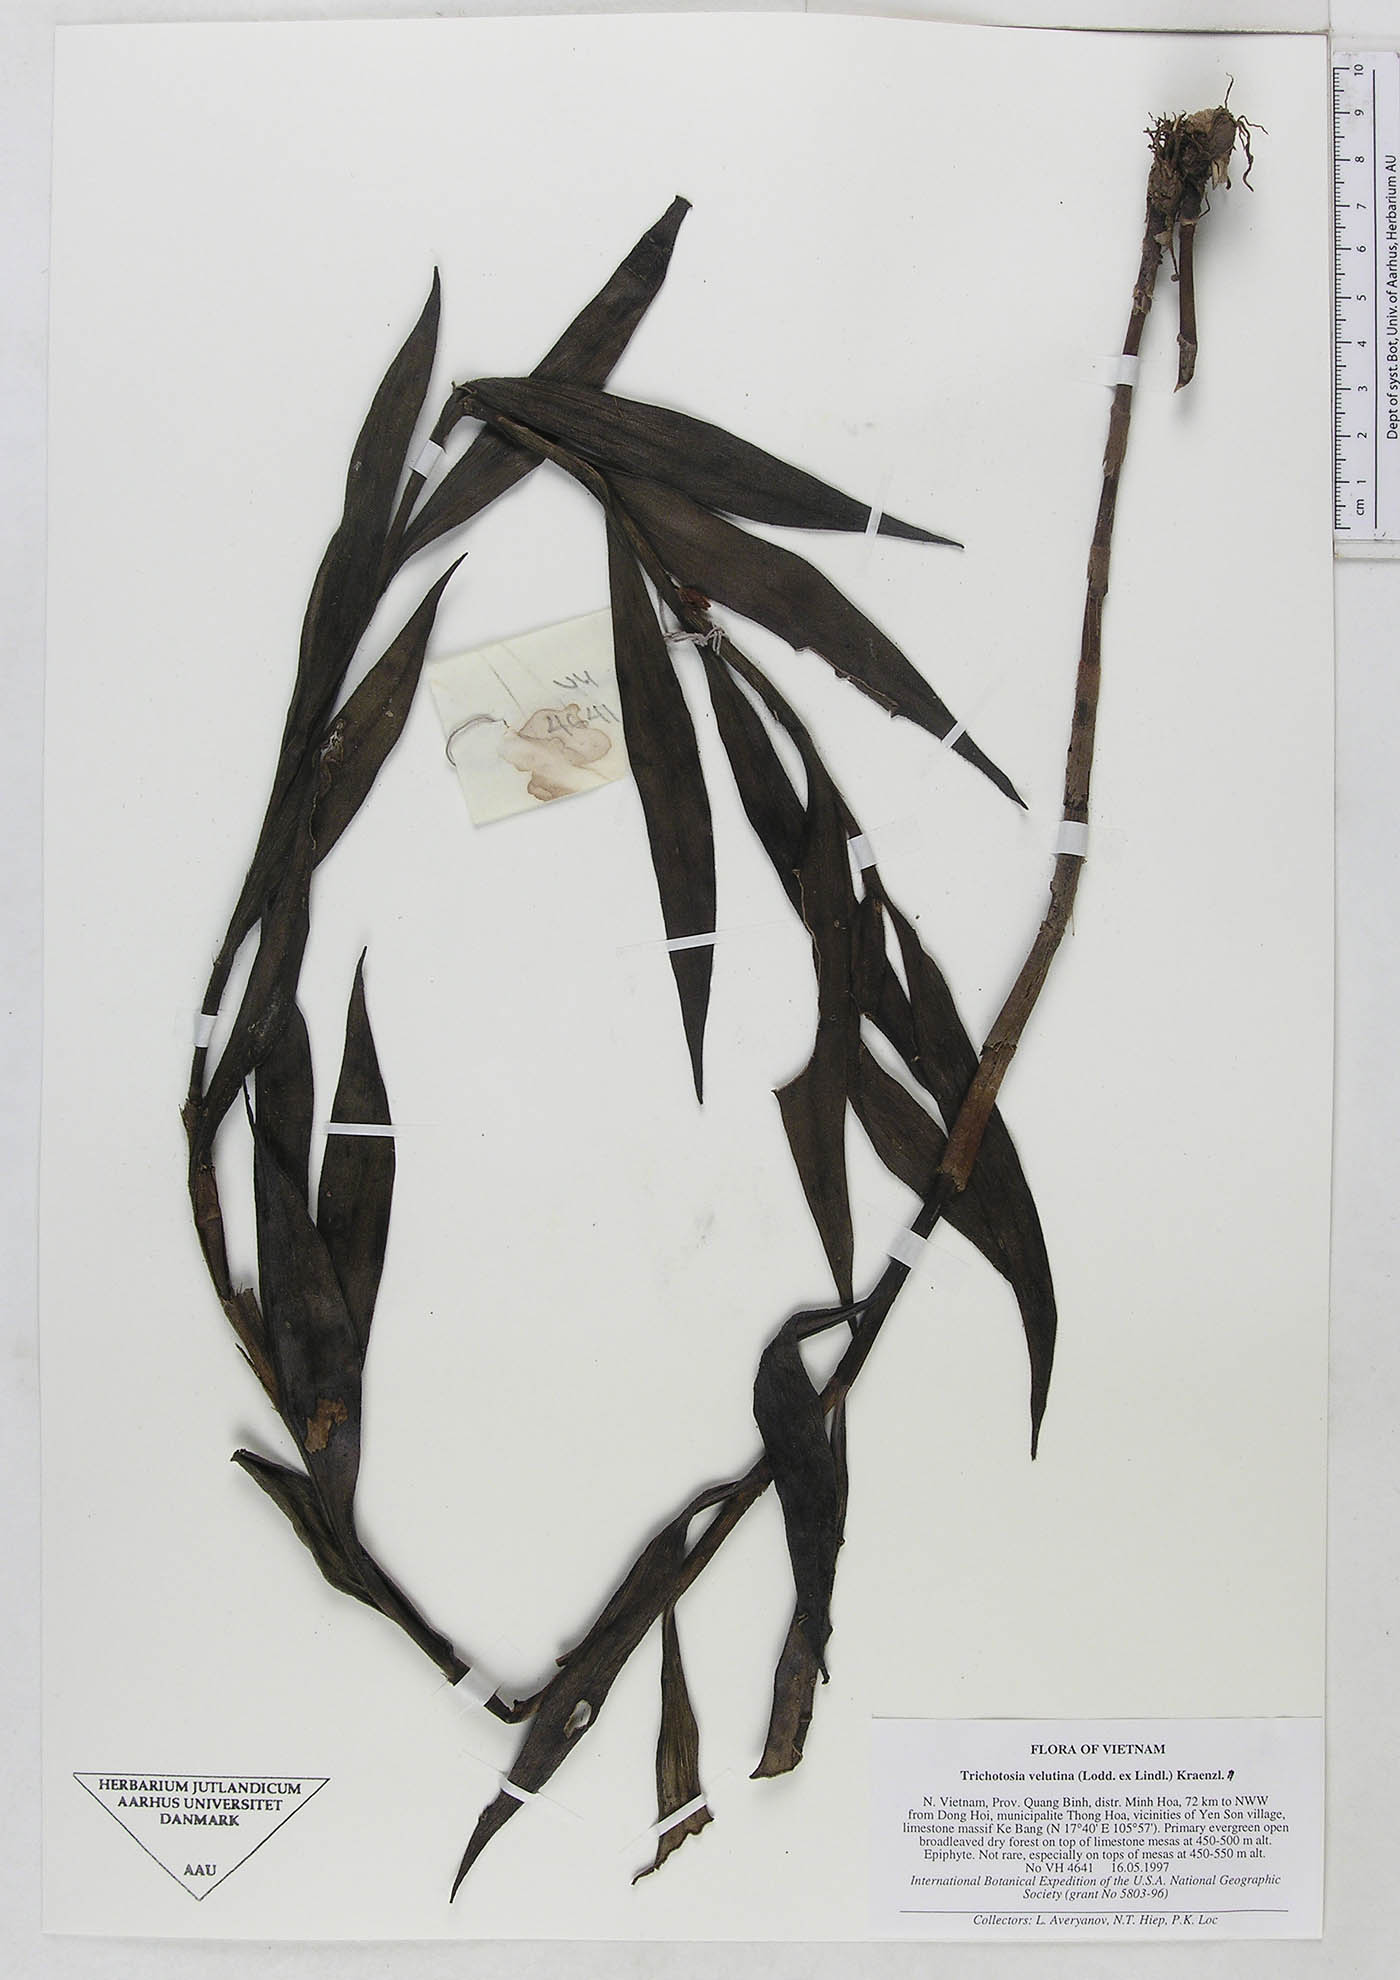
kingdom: Plantae
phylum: Tracheophyta
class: Liliopsida
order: Asparagales
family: Orchidaceae
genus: Trichotosia
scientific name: Trichotosia velutina
